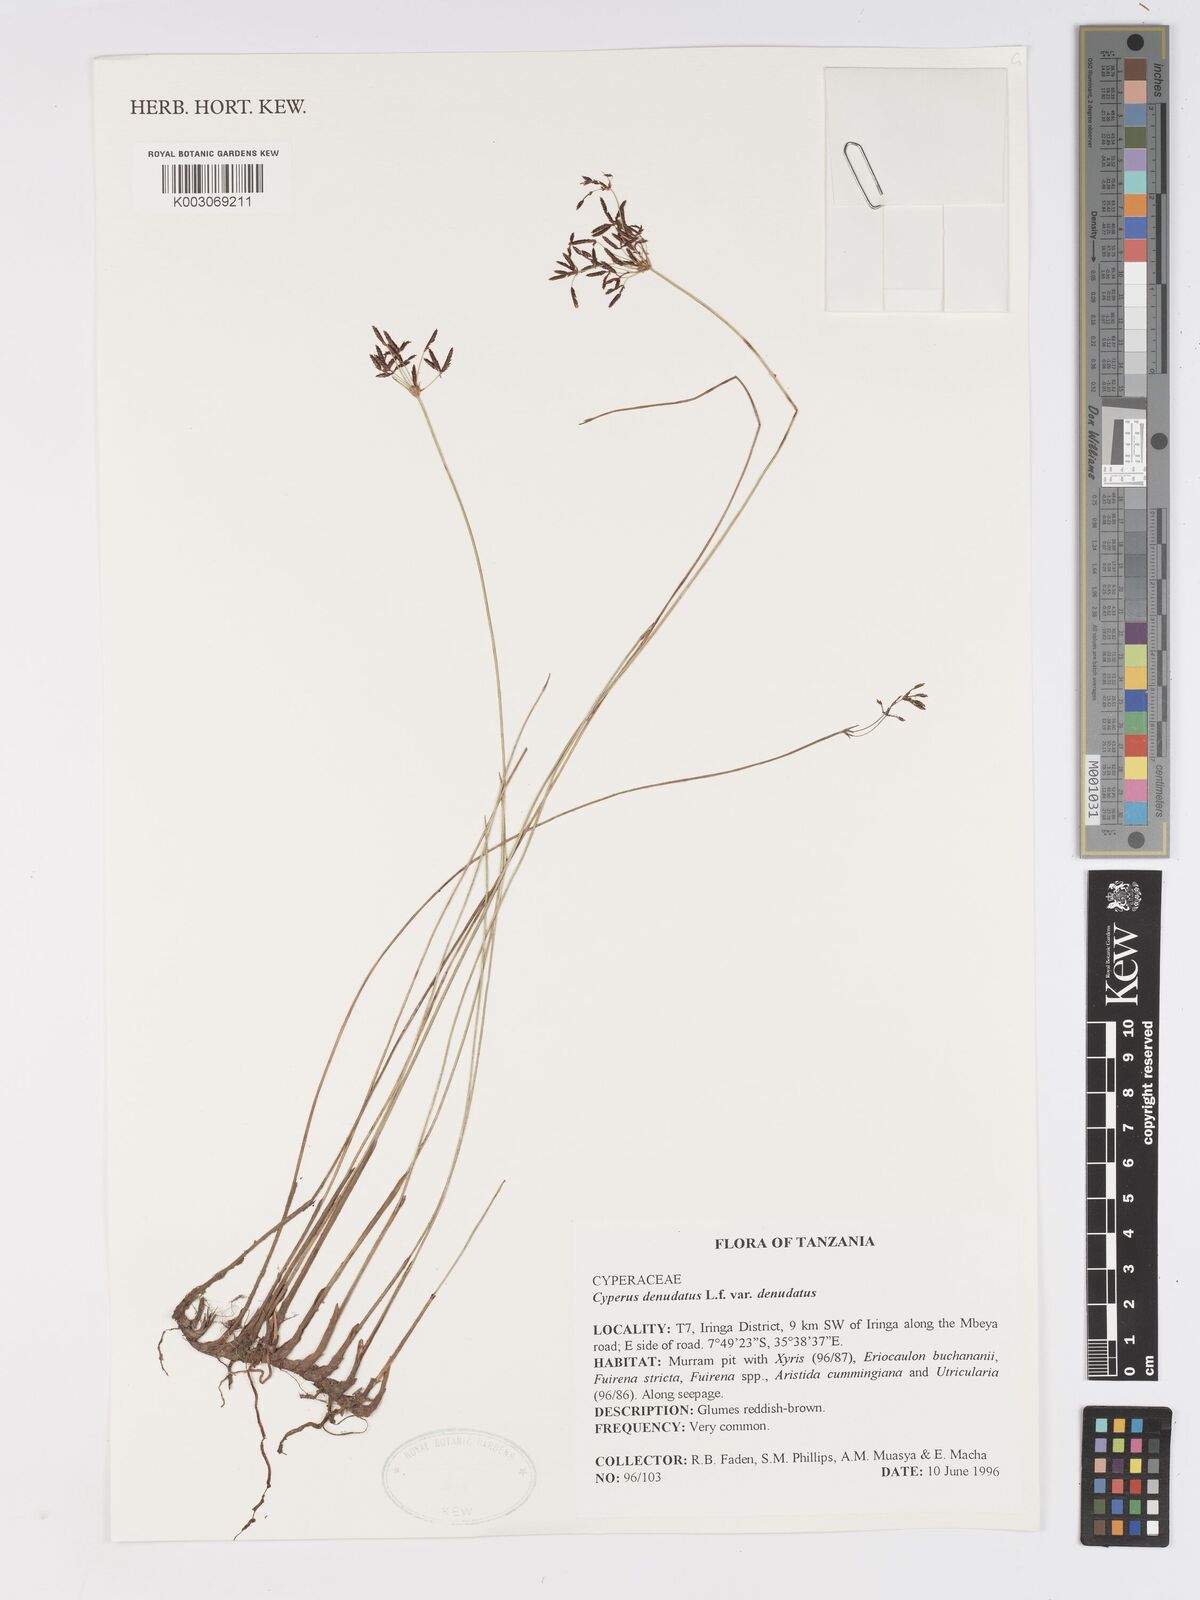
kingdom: Plantae
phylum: Tracheophyta
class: Liliopsida
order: Poales
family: Cyperaceae
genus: Cyperus
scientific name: Cyperus denudatus
